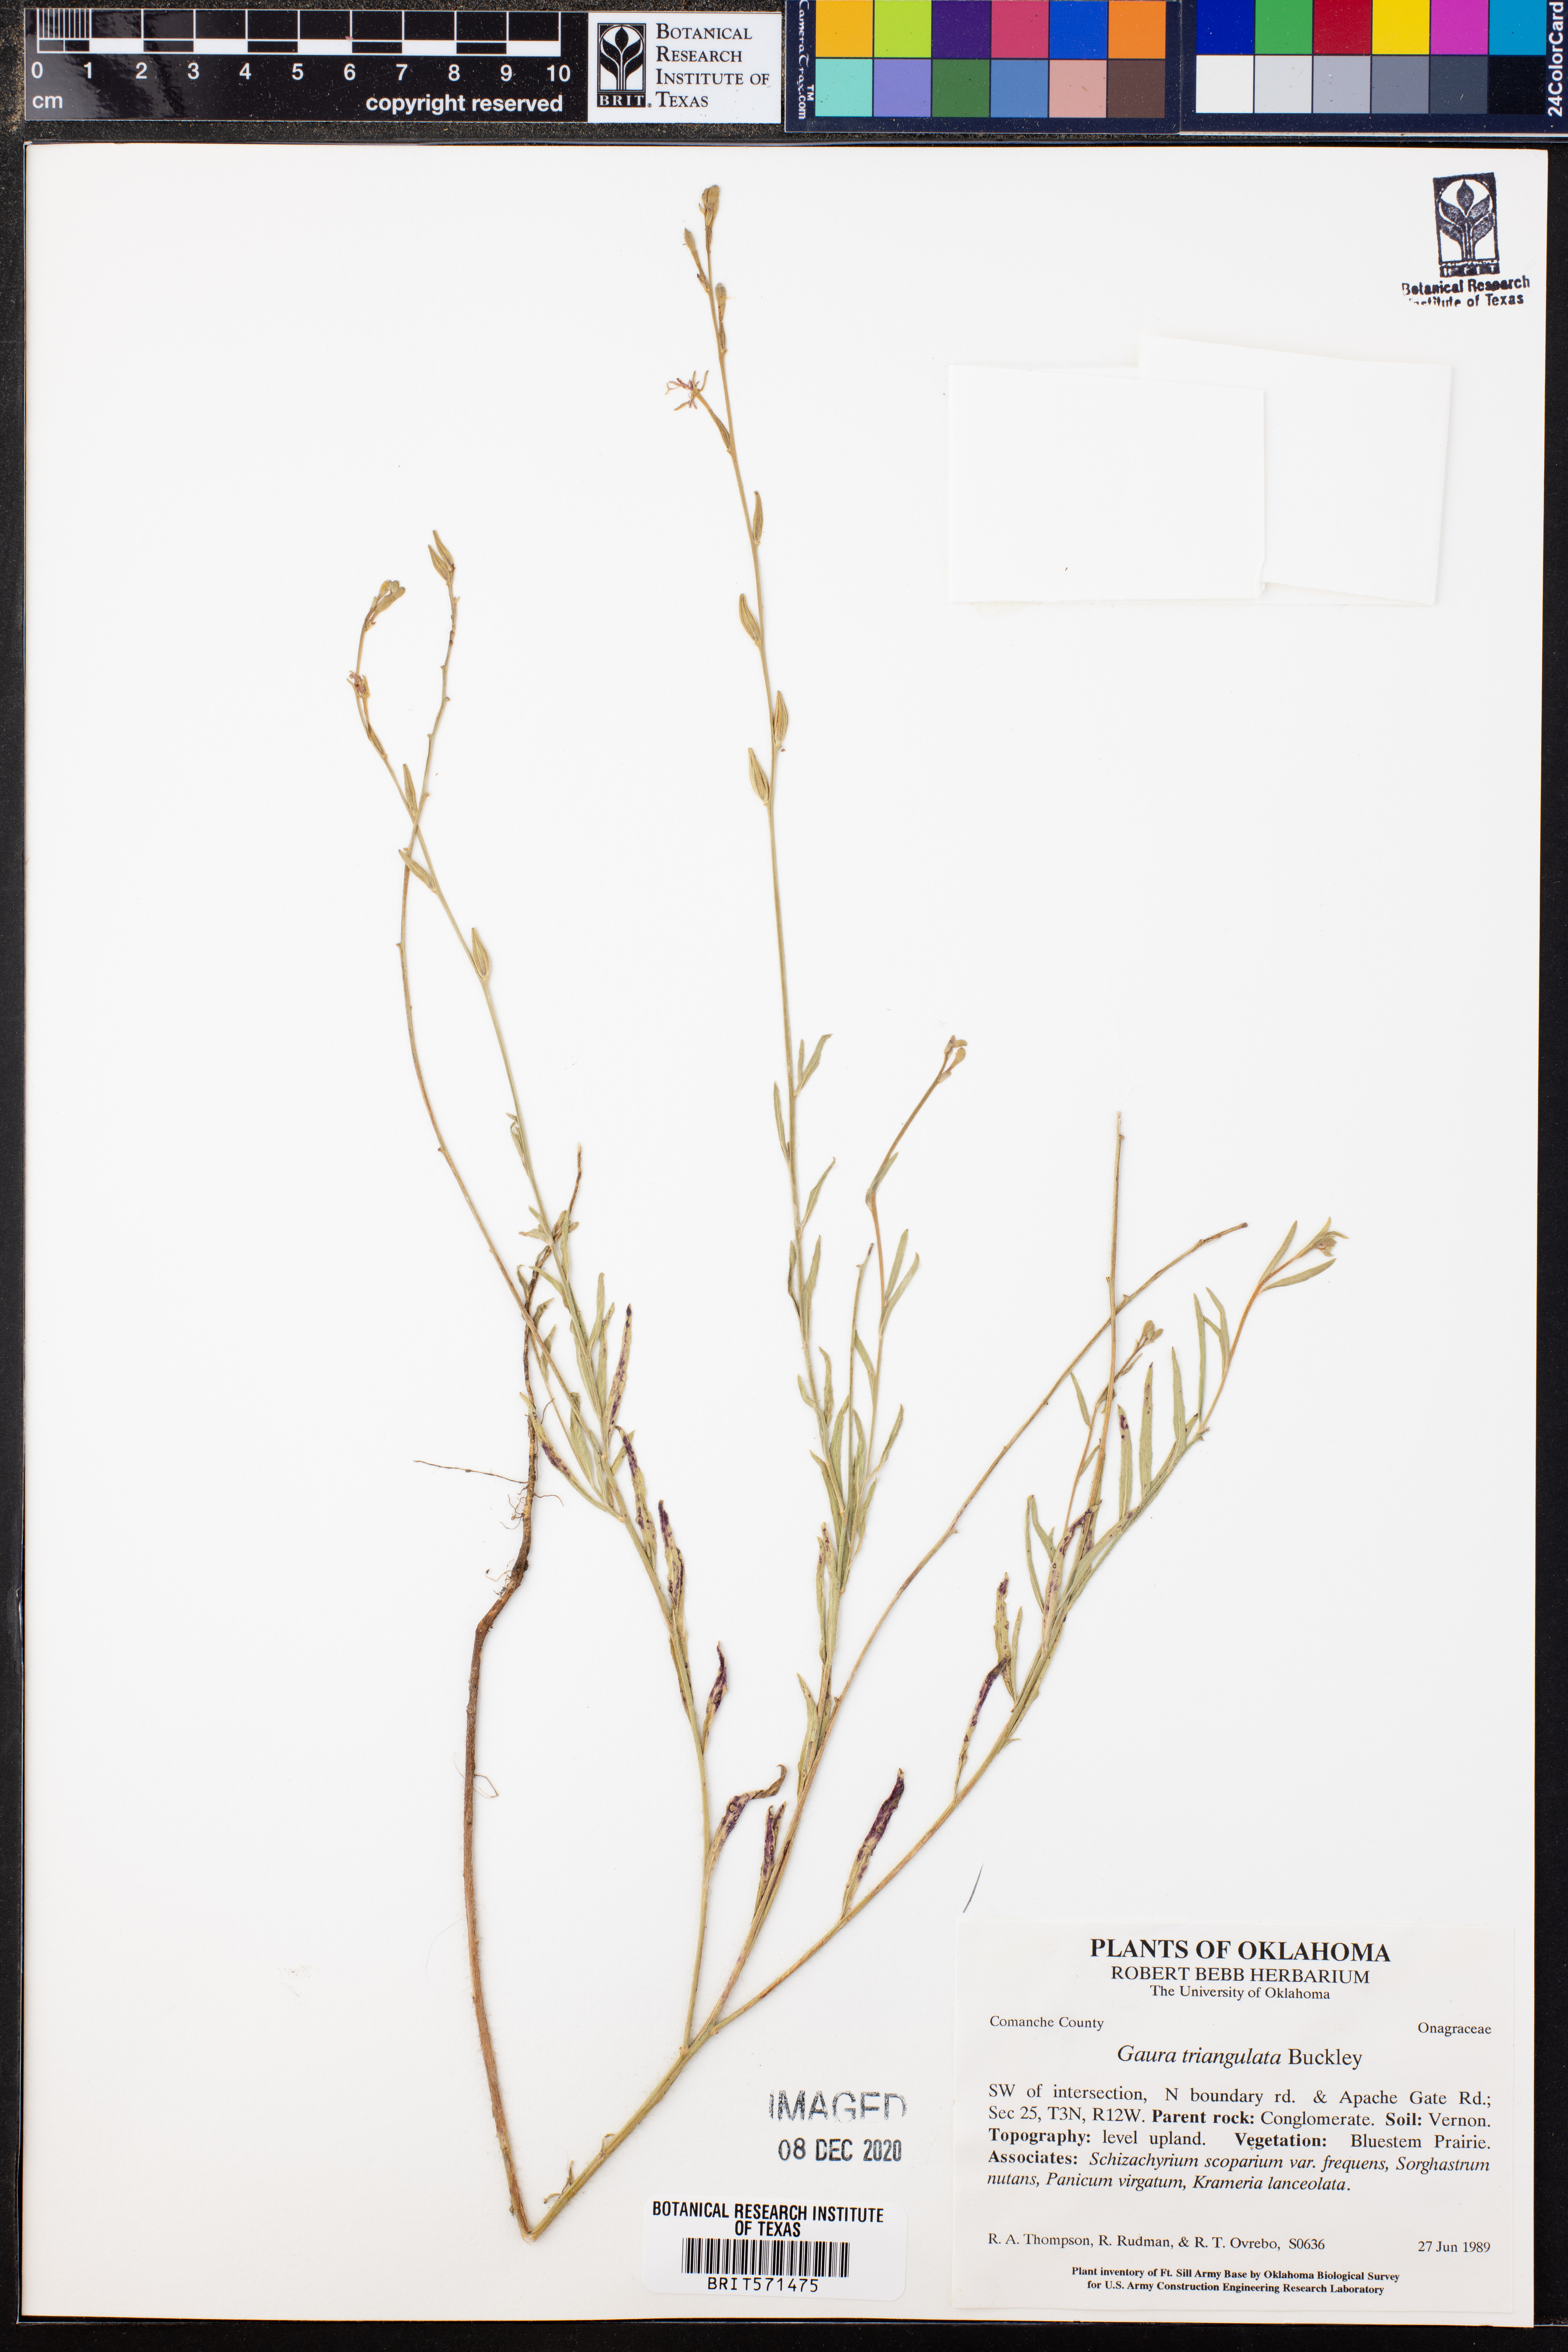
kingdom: Plantae
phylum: Tracheophyta
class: Magnoliopsida
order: Myrtales
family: Onagraceae
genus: Oenothera
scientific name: Oenothera triangulata
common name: Prairie beeblossom
